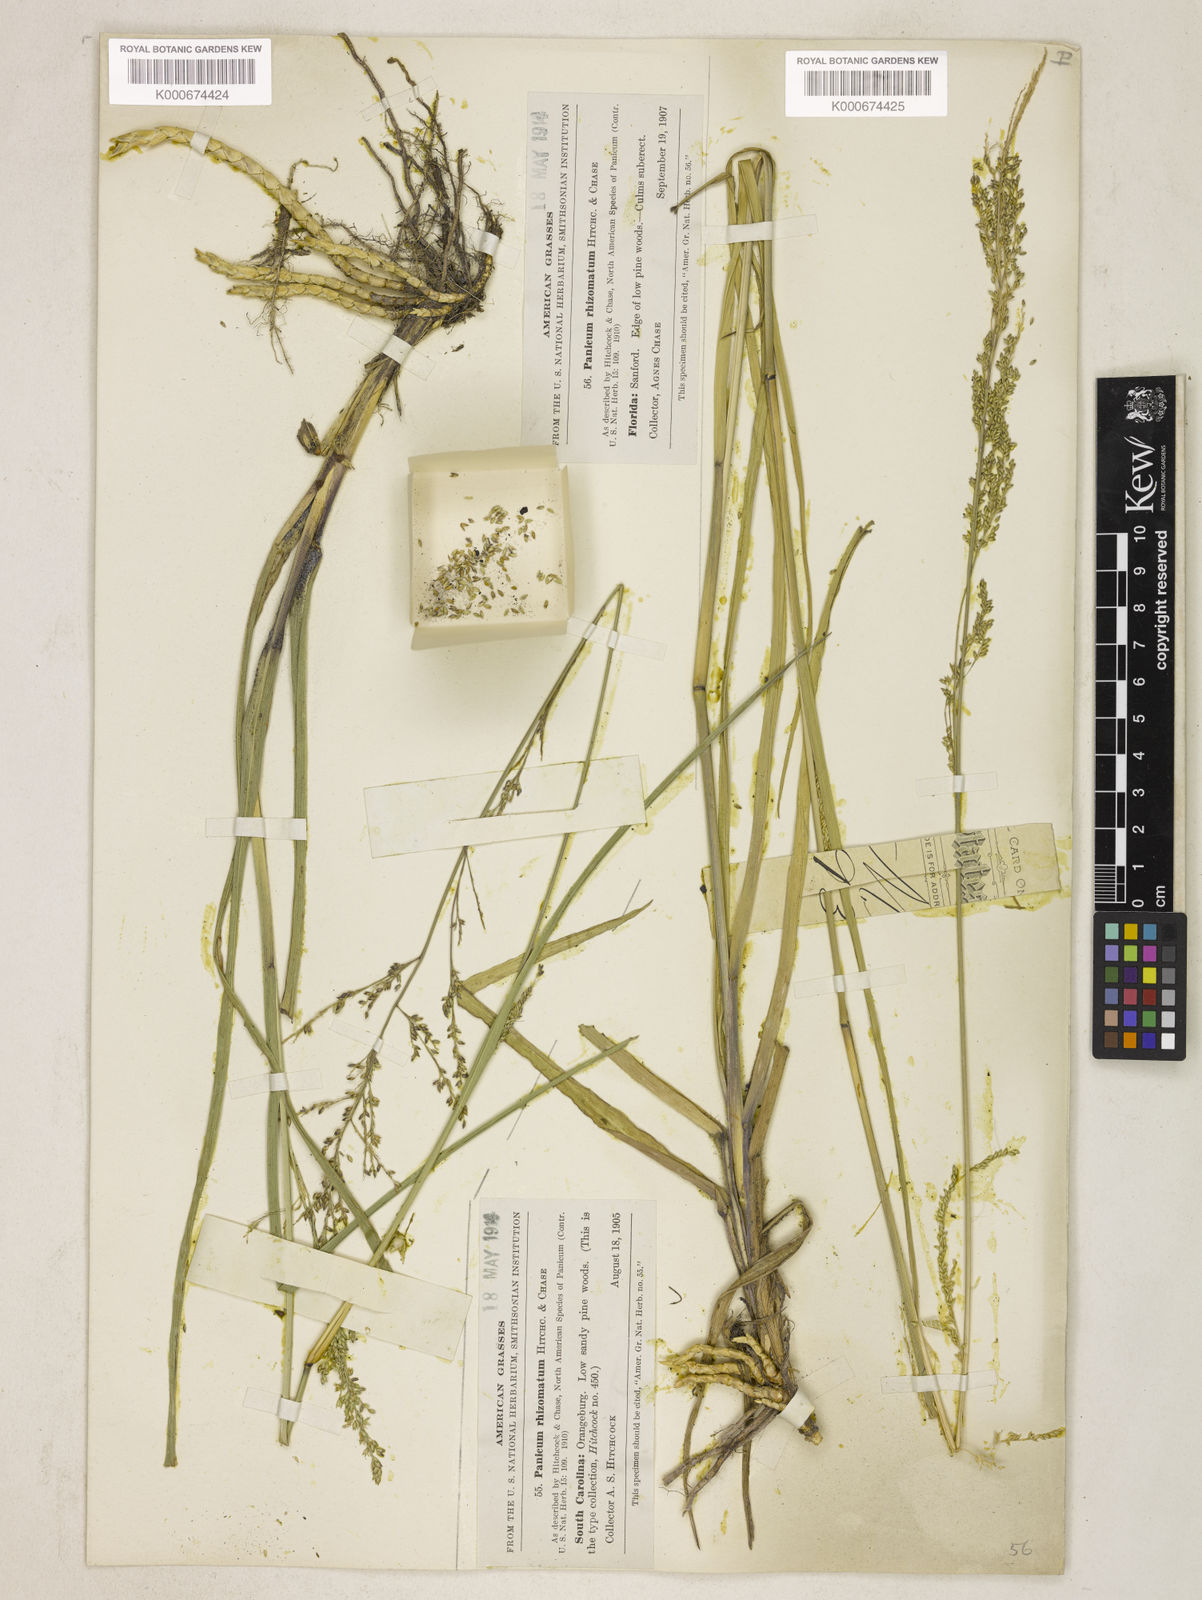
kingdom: Plantae
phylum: Tracheophyta
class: Liliopsida
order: Poales
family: Poaceae
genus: Coleataenia
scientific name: Coleataenia anceps
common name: Beaked panic grass
